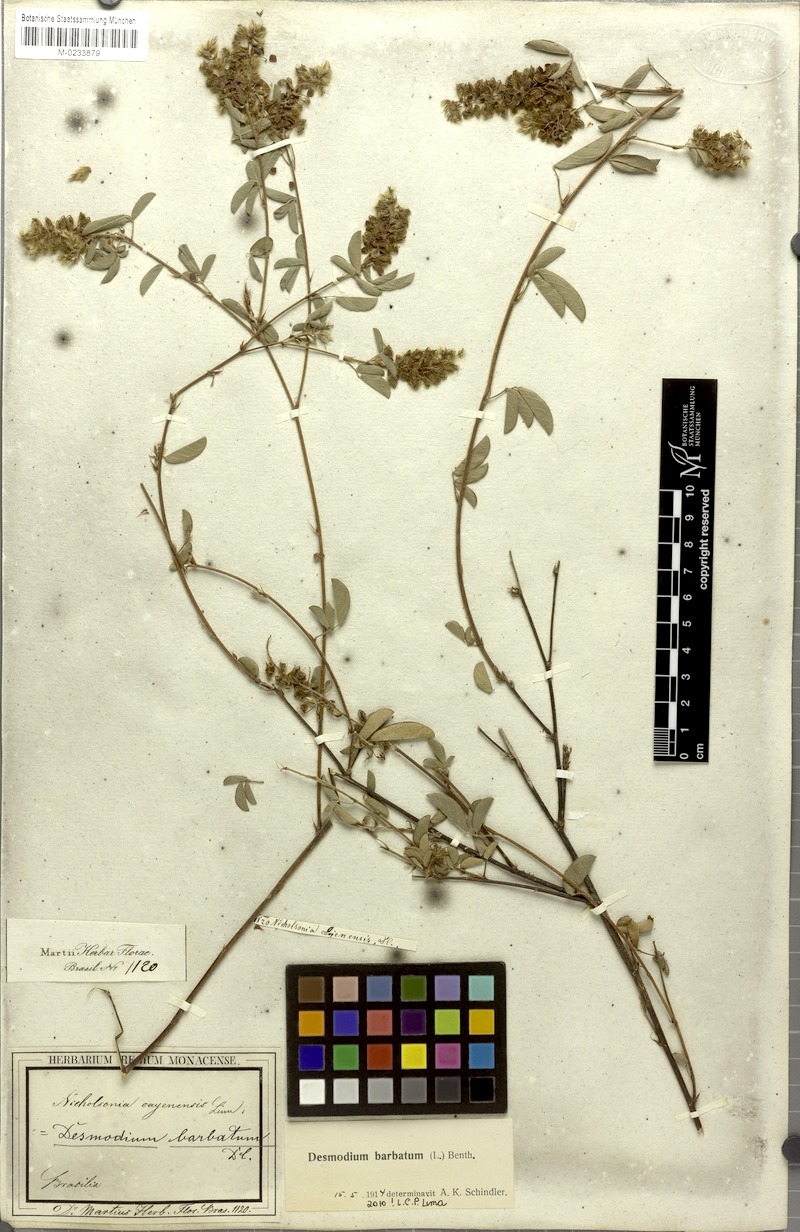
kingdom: Plantae
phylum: Tracheophyta
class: Magnoliopsida
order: Fabales
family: Fabaceae
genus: Grona
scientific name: Grona barbata
